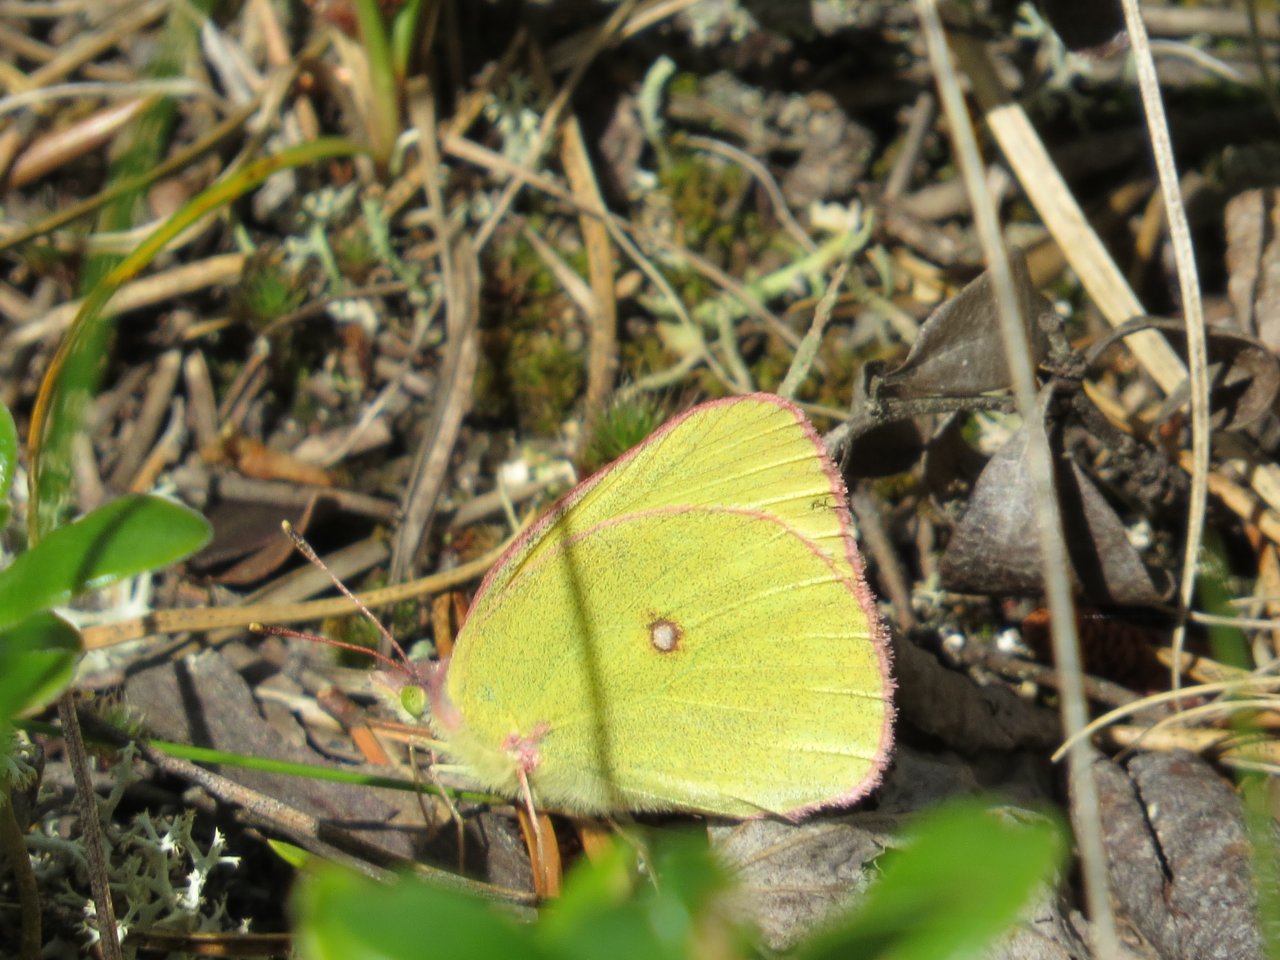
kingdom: Animalia
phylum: Arthropoda
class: Insecta
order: Lepidoptera
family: Pieridae
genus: Colias
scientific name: Colias interior
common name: Pink-edged Sulphur
